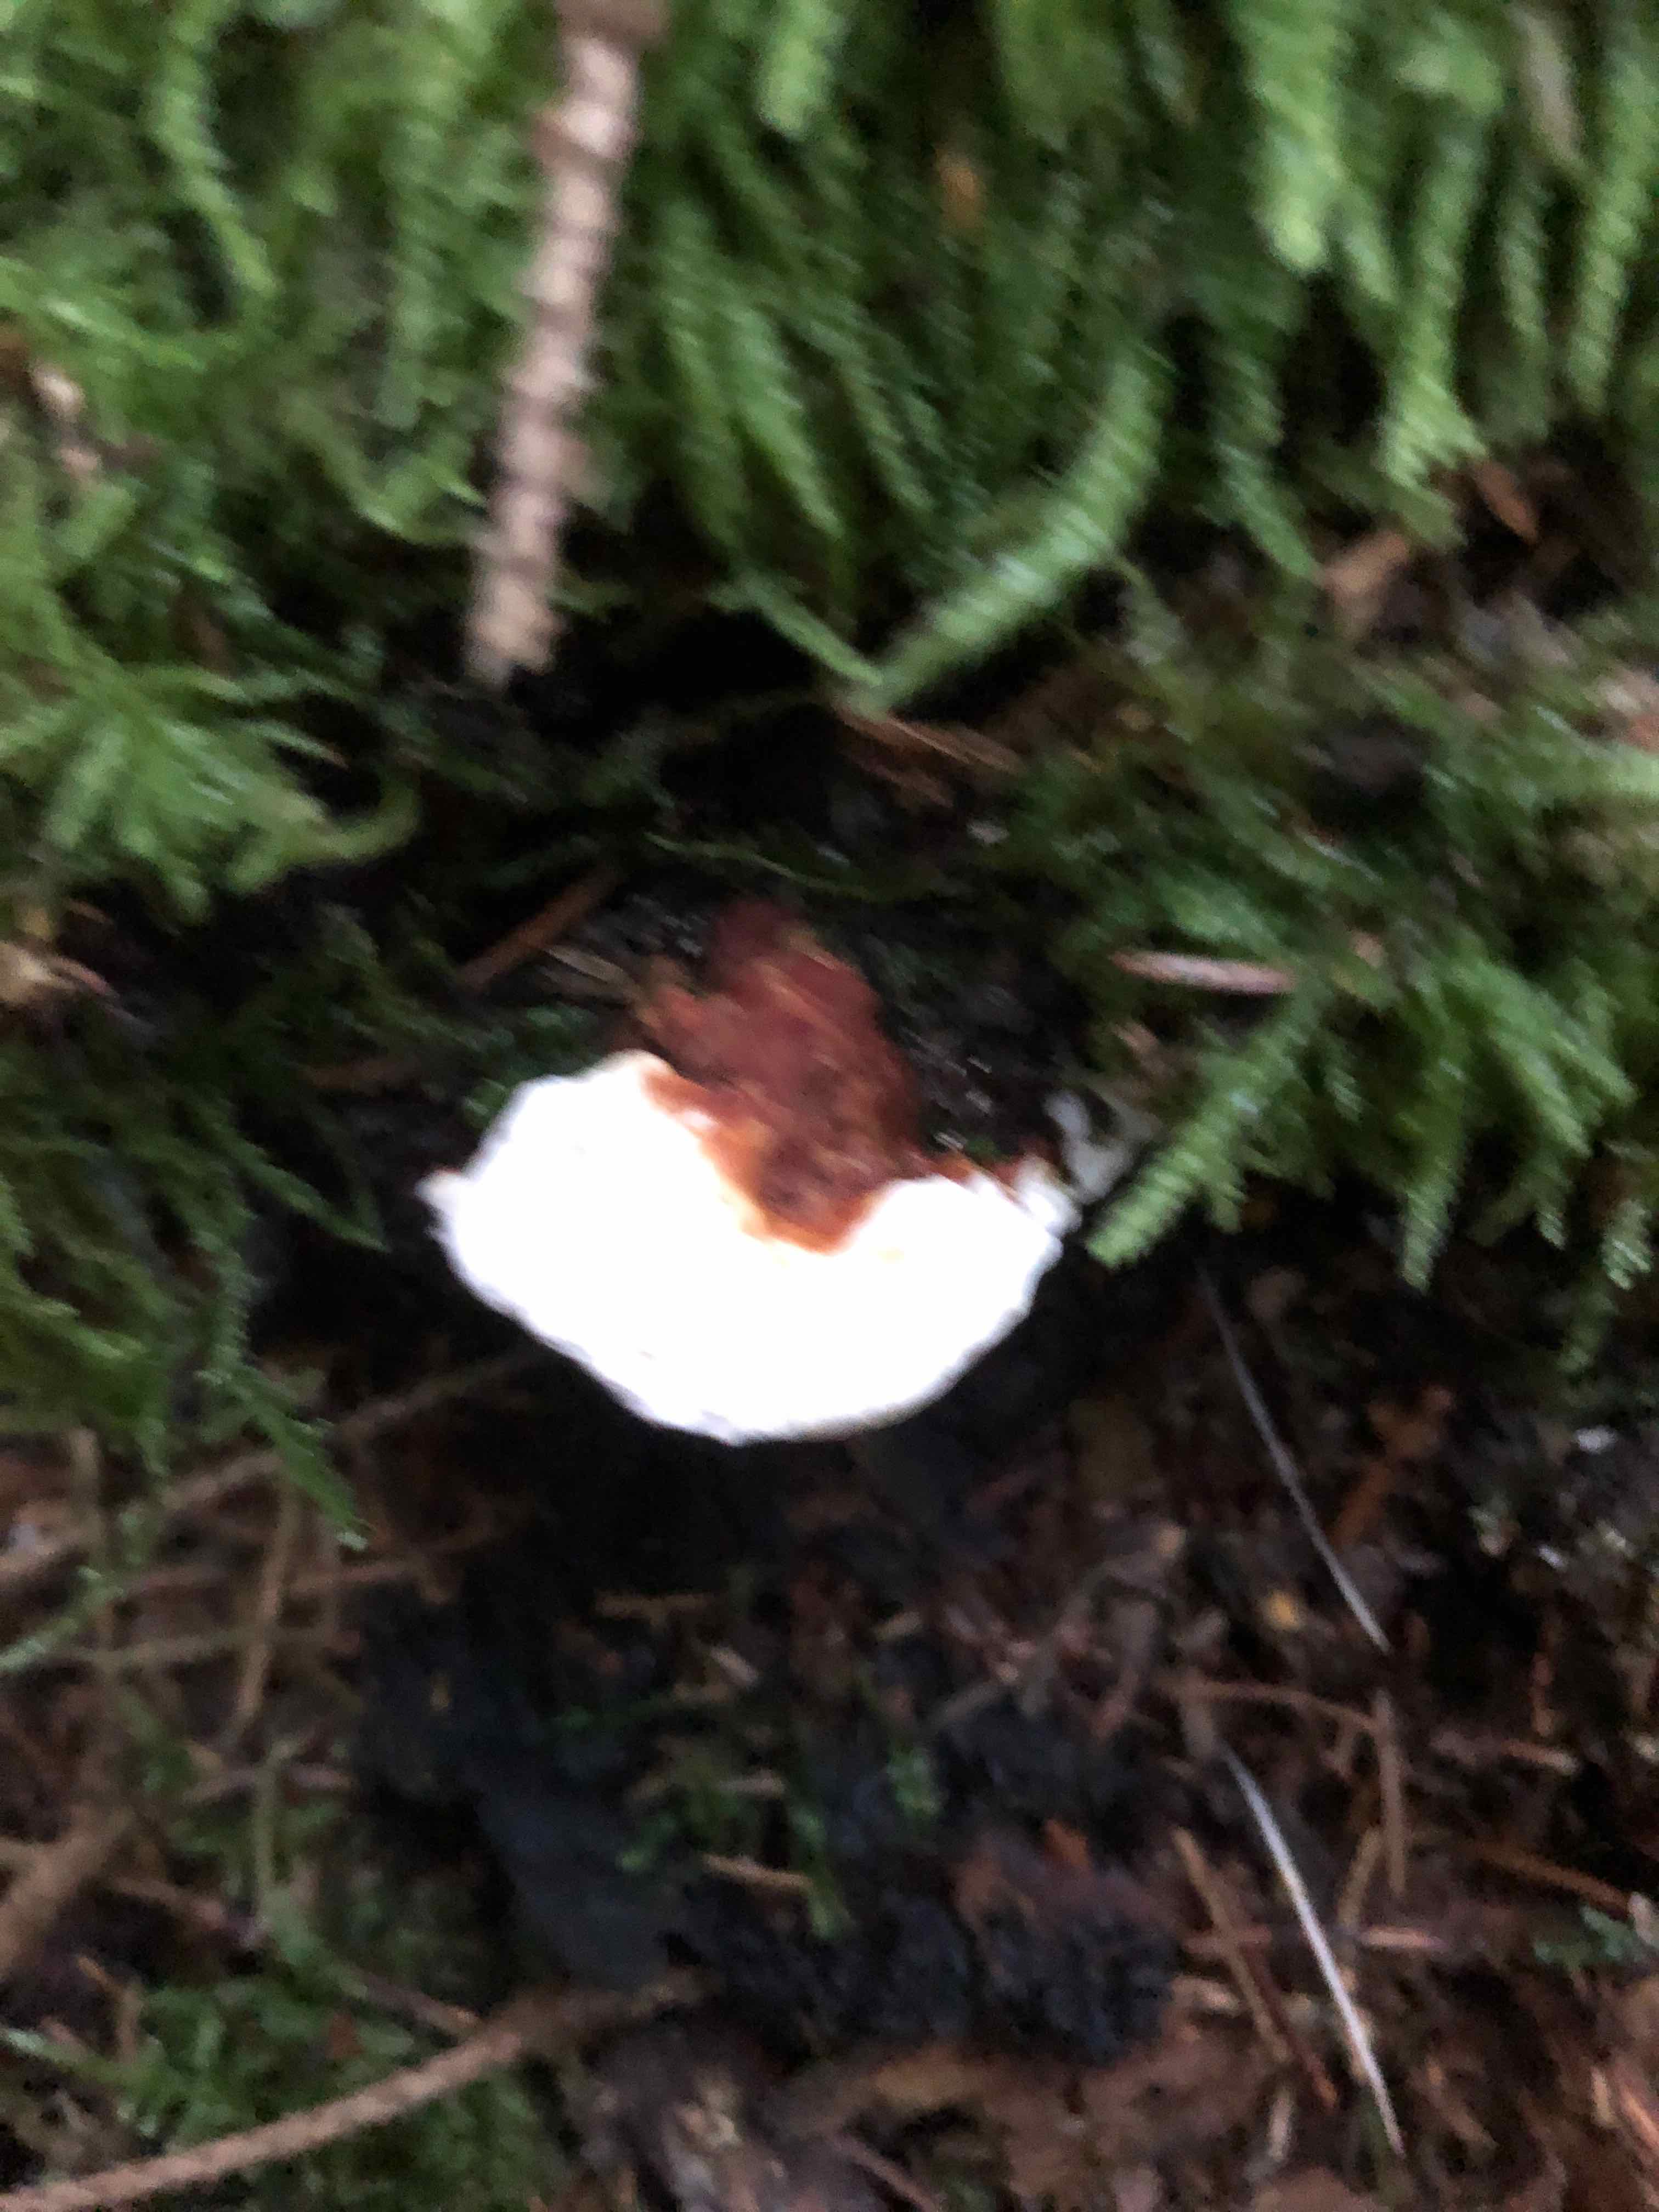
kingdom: Fungi
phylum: Basidiomycota
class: Agaricomycetes
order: Russulales
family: Bondarzewiaceae
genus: Heterobasidion
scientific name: Heterobasidion annosum
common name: almindelig rodfordærver
